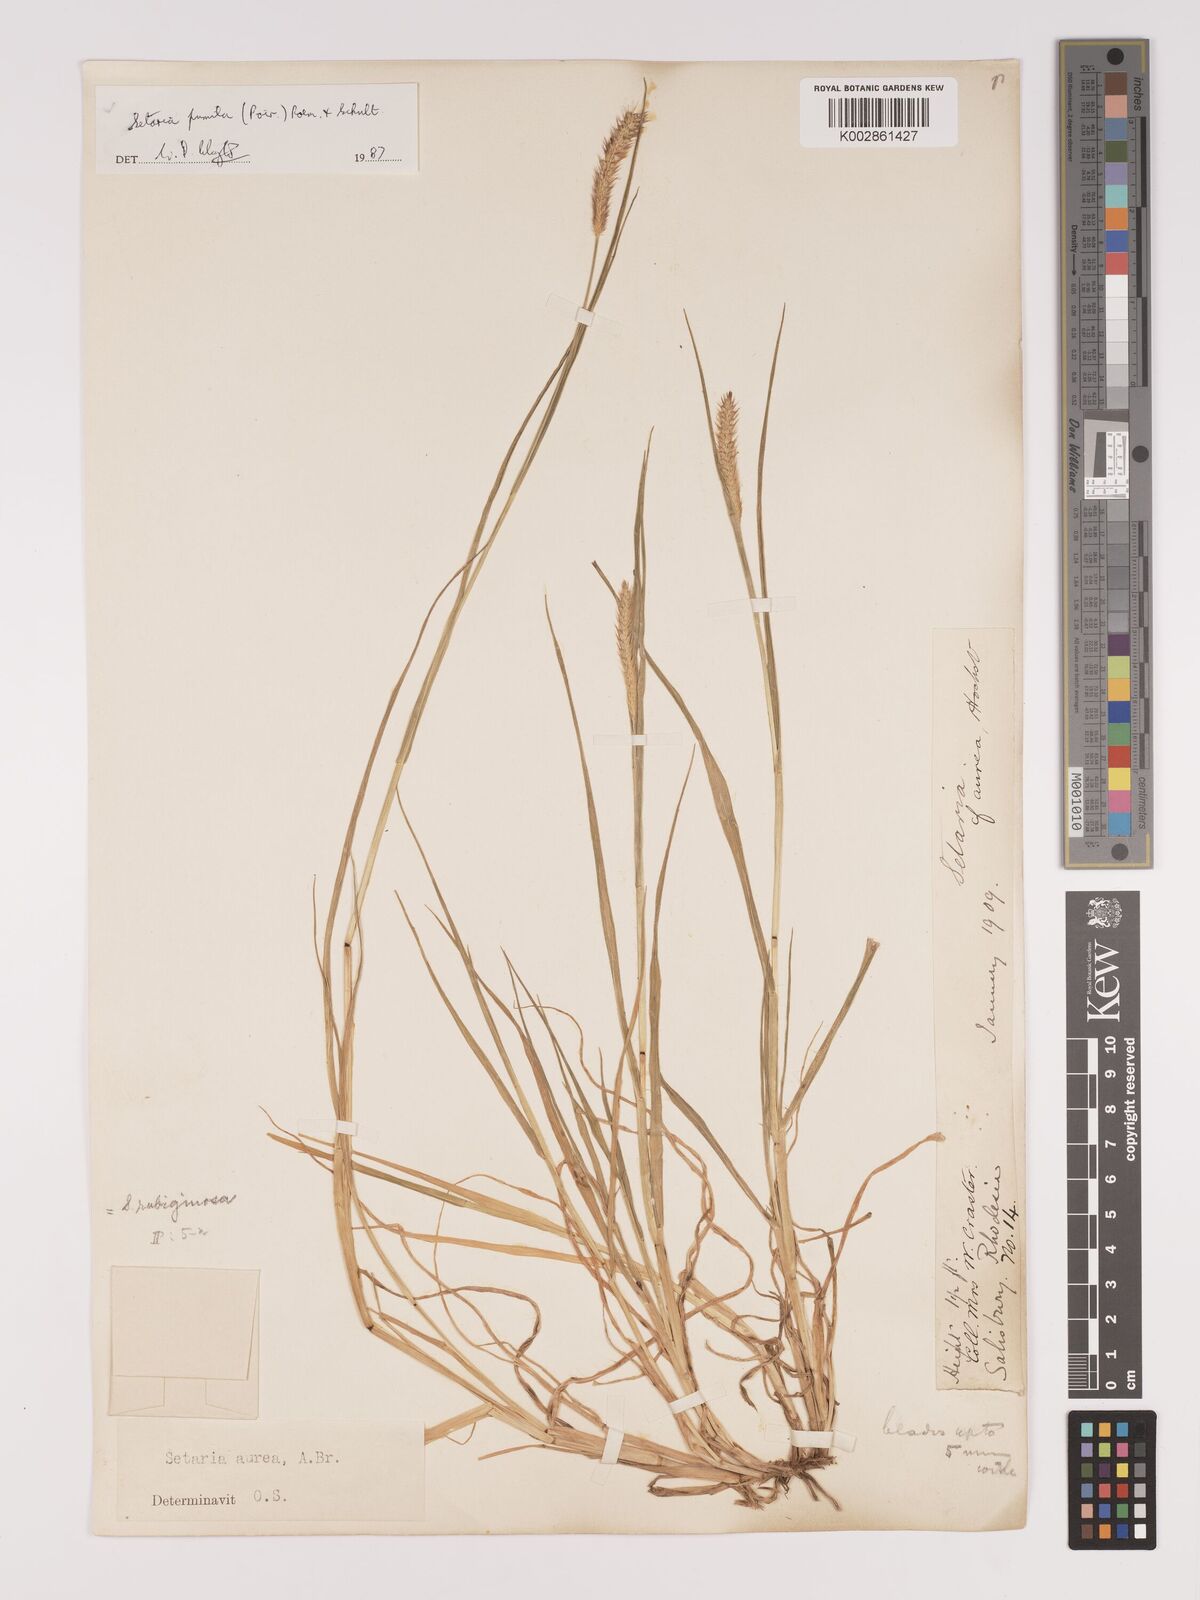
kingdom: Plantae
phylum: Tracheophyta
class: Liliopsida
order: Poales
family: Poaceae
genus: Setaria
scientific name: Setaria pumila
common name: Yellow bristle-grass
